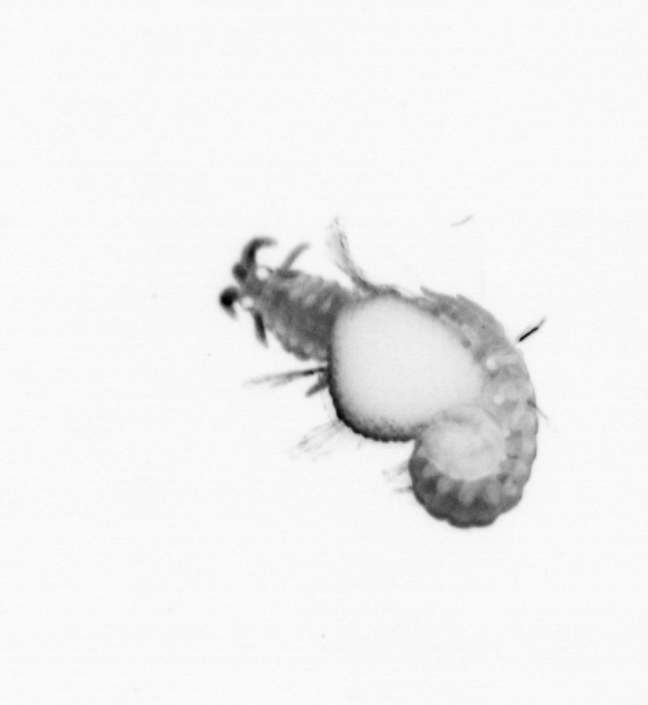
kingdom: Animalia
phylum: Annelida
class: Polychaeta
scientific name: Polychaeta
